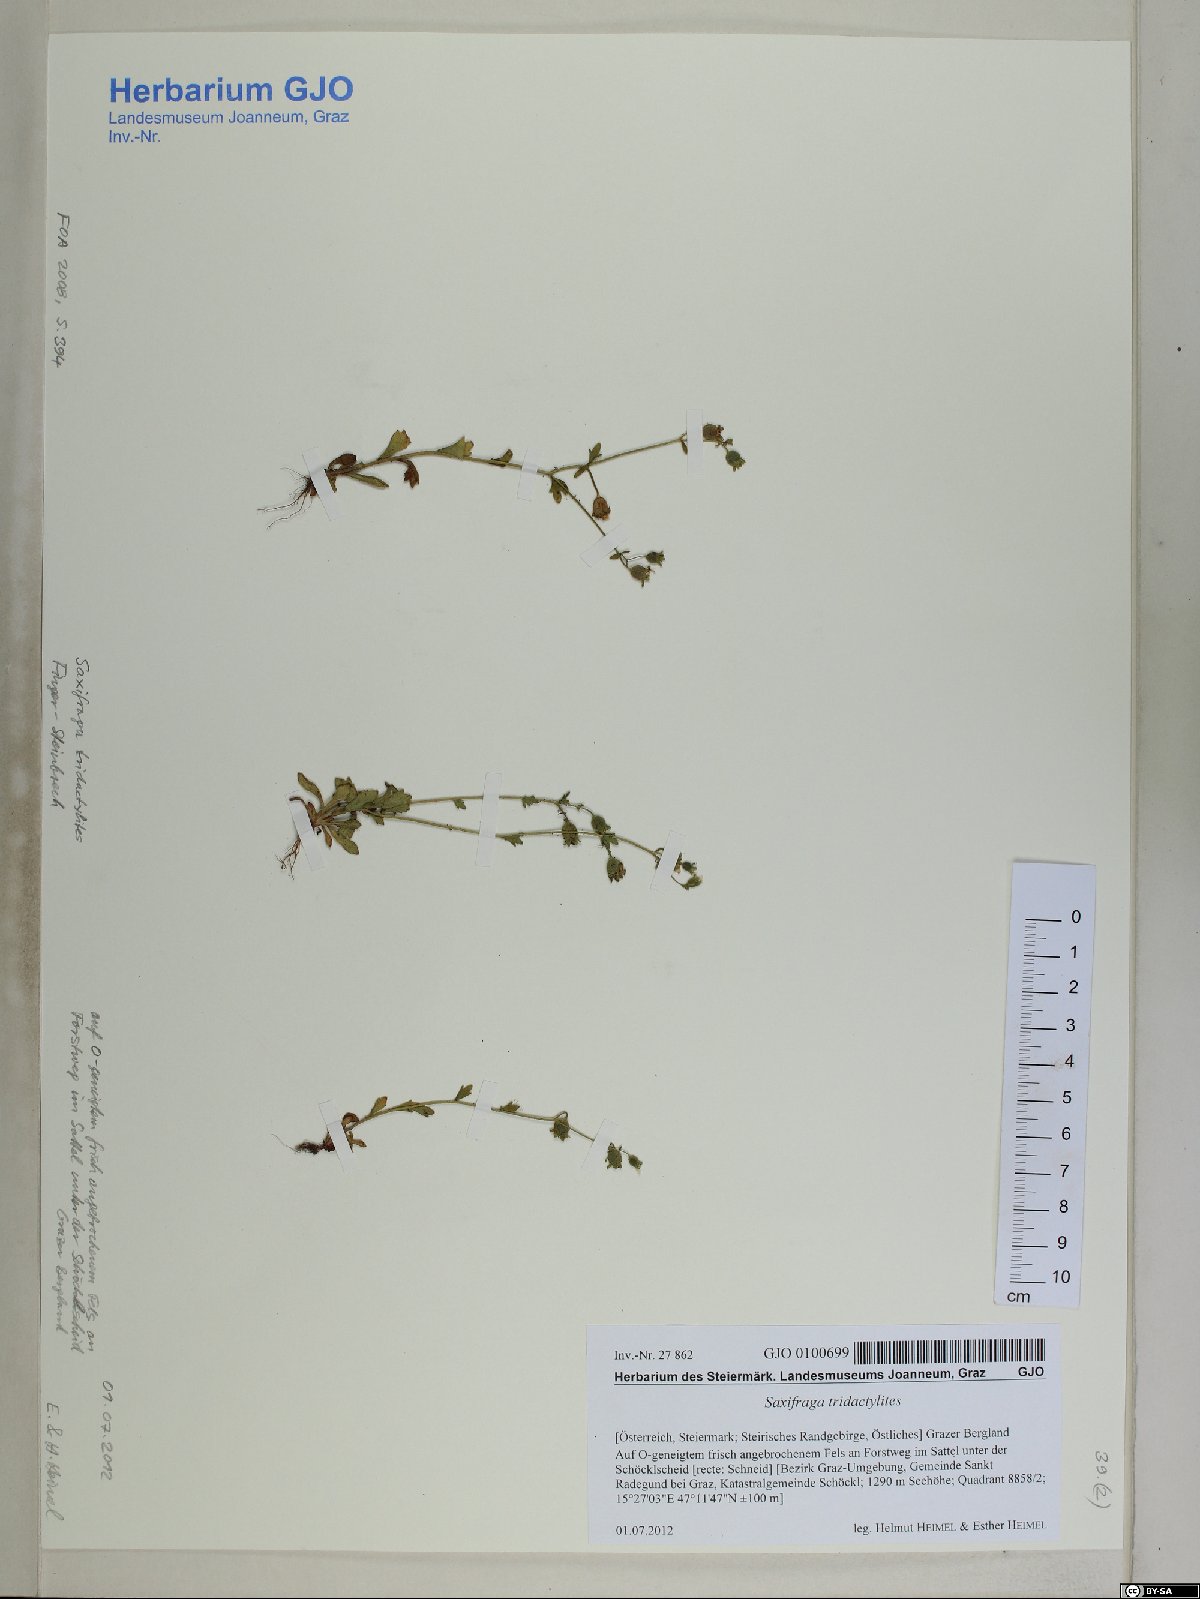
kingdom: Plantae
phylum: Tracheophyta
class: Magnoliopsida
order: Saxifragales
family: Saxifragaceae
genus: Saxifraga
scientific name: Saxifraga tridactylites
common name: Rue-leaved saxifrage
